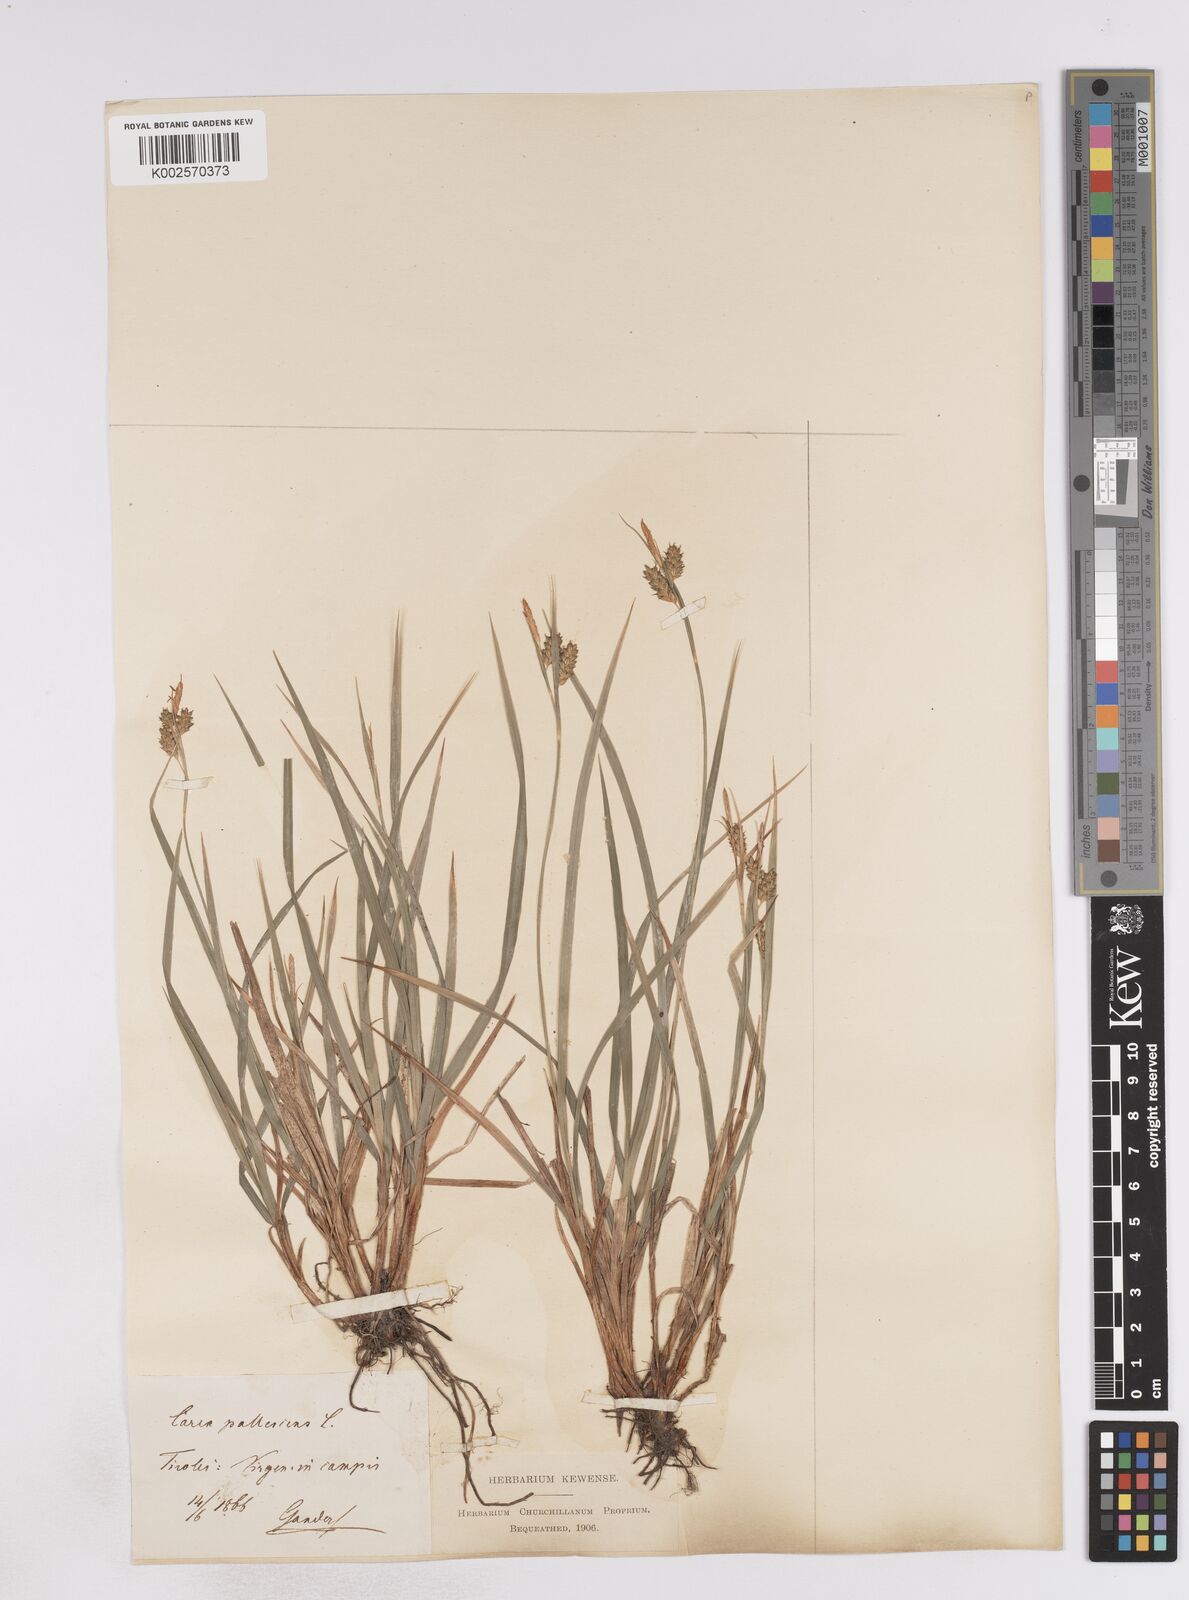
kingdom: Plantae
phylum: Tracheophyta
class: Liliopsida
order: Poales
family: Cyperaceae
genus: Carex
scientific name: Carex pallescens
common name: Pale sedge
